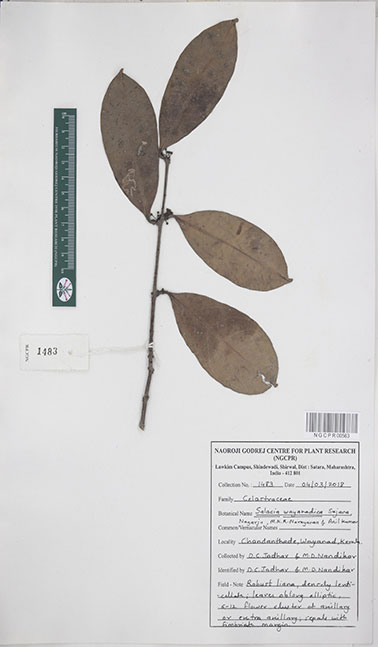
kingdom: Plantae
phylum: Tracheophyta
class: Magnoliopsida
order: Celastrales
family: Celastraceae
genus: Salacia
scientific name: Salacia wayanadica
